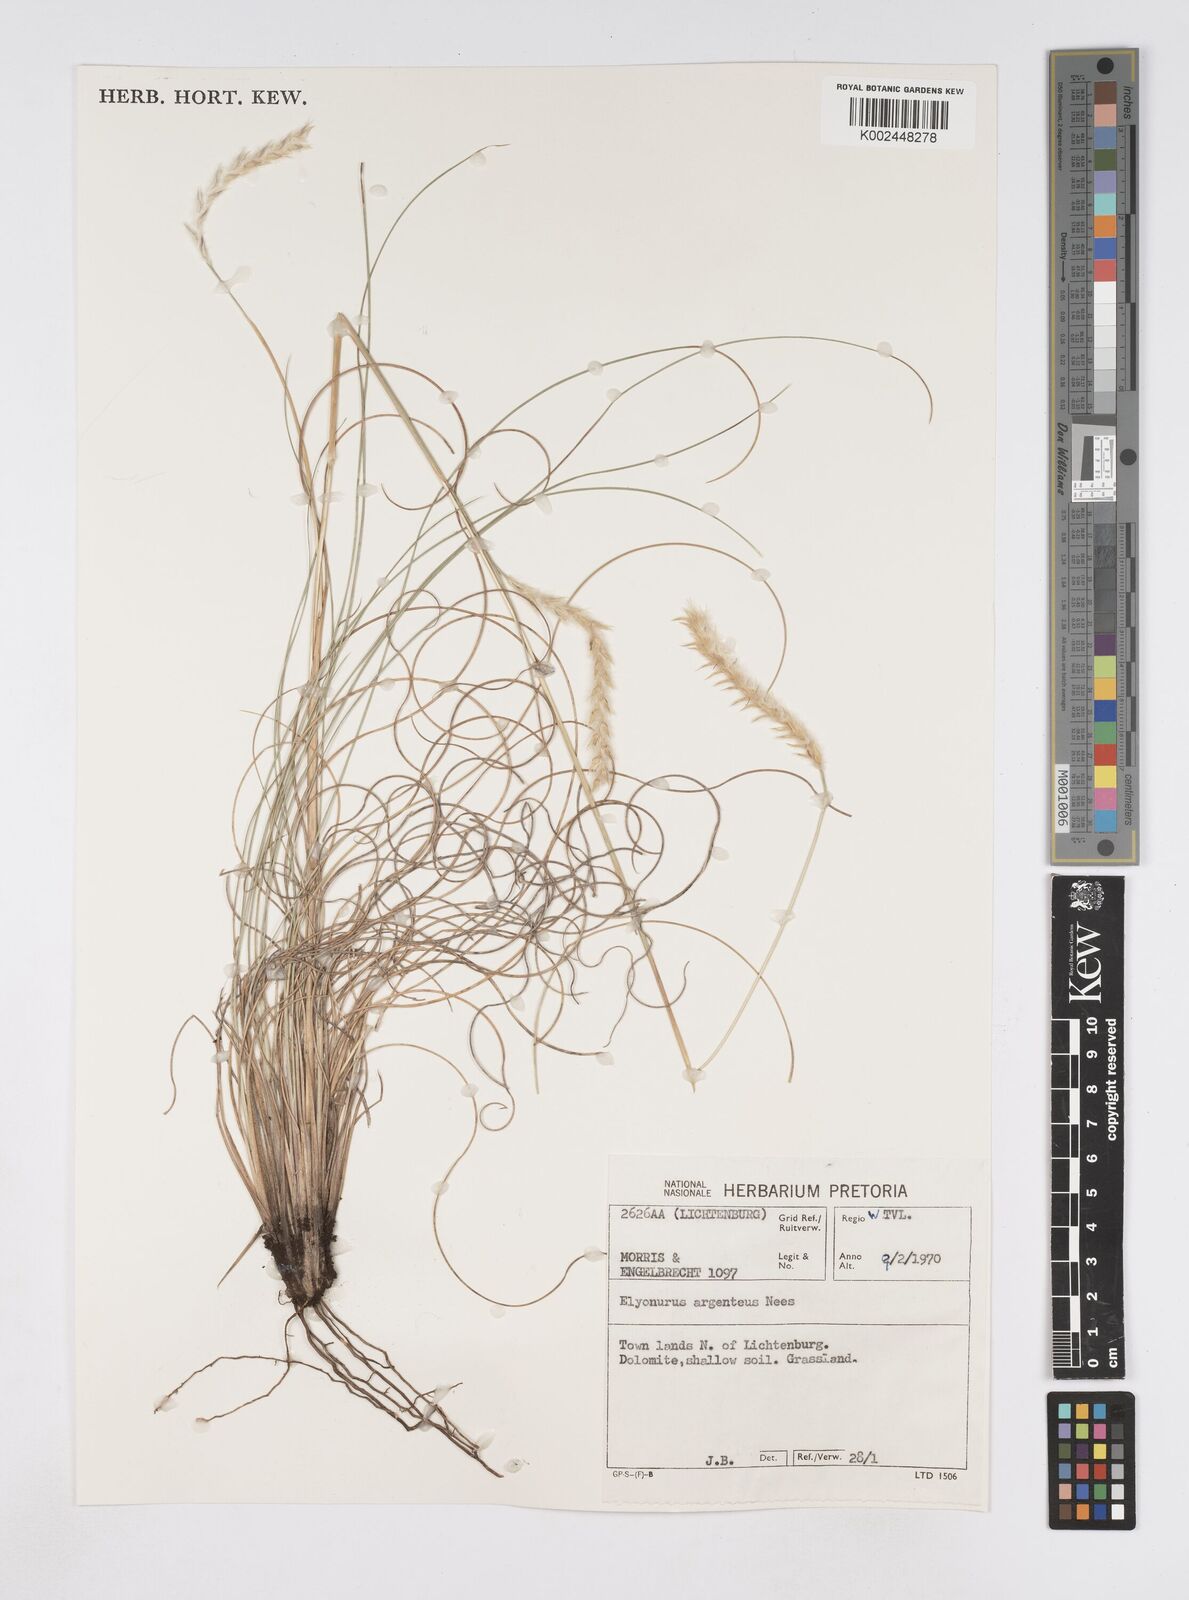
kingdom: Plantae
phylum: Tracheophyta
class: Liliopsida
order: Poales
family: Poaceae
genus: Elionurus
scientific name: Elionurus muticus
